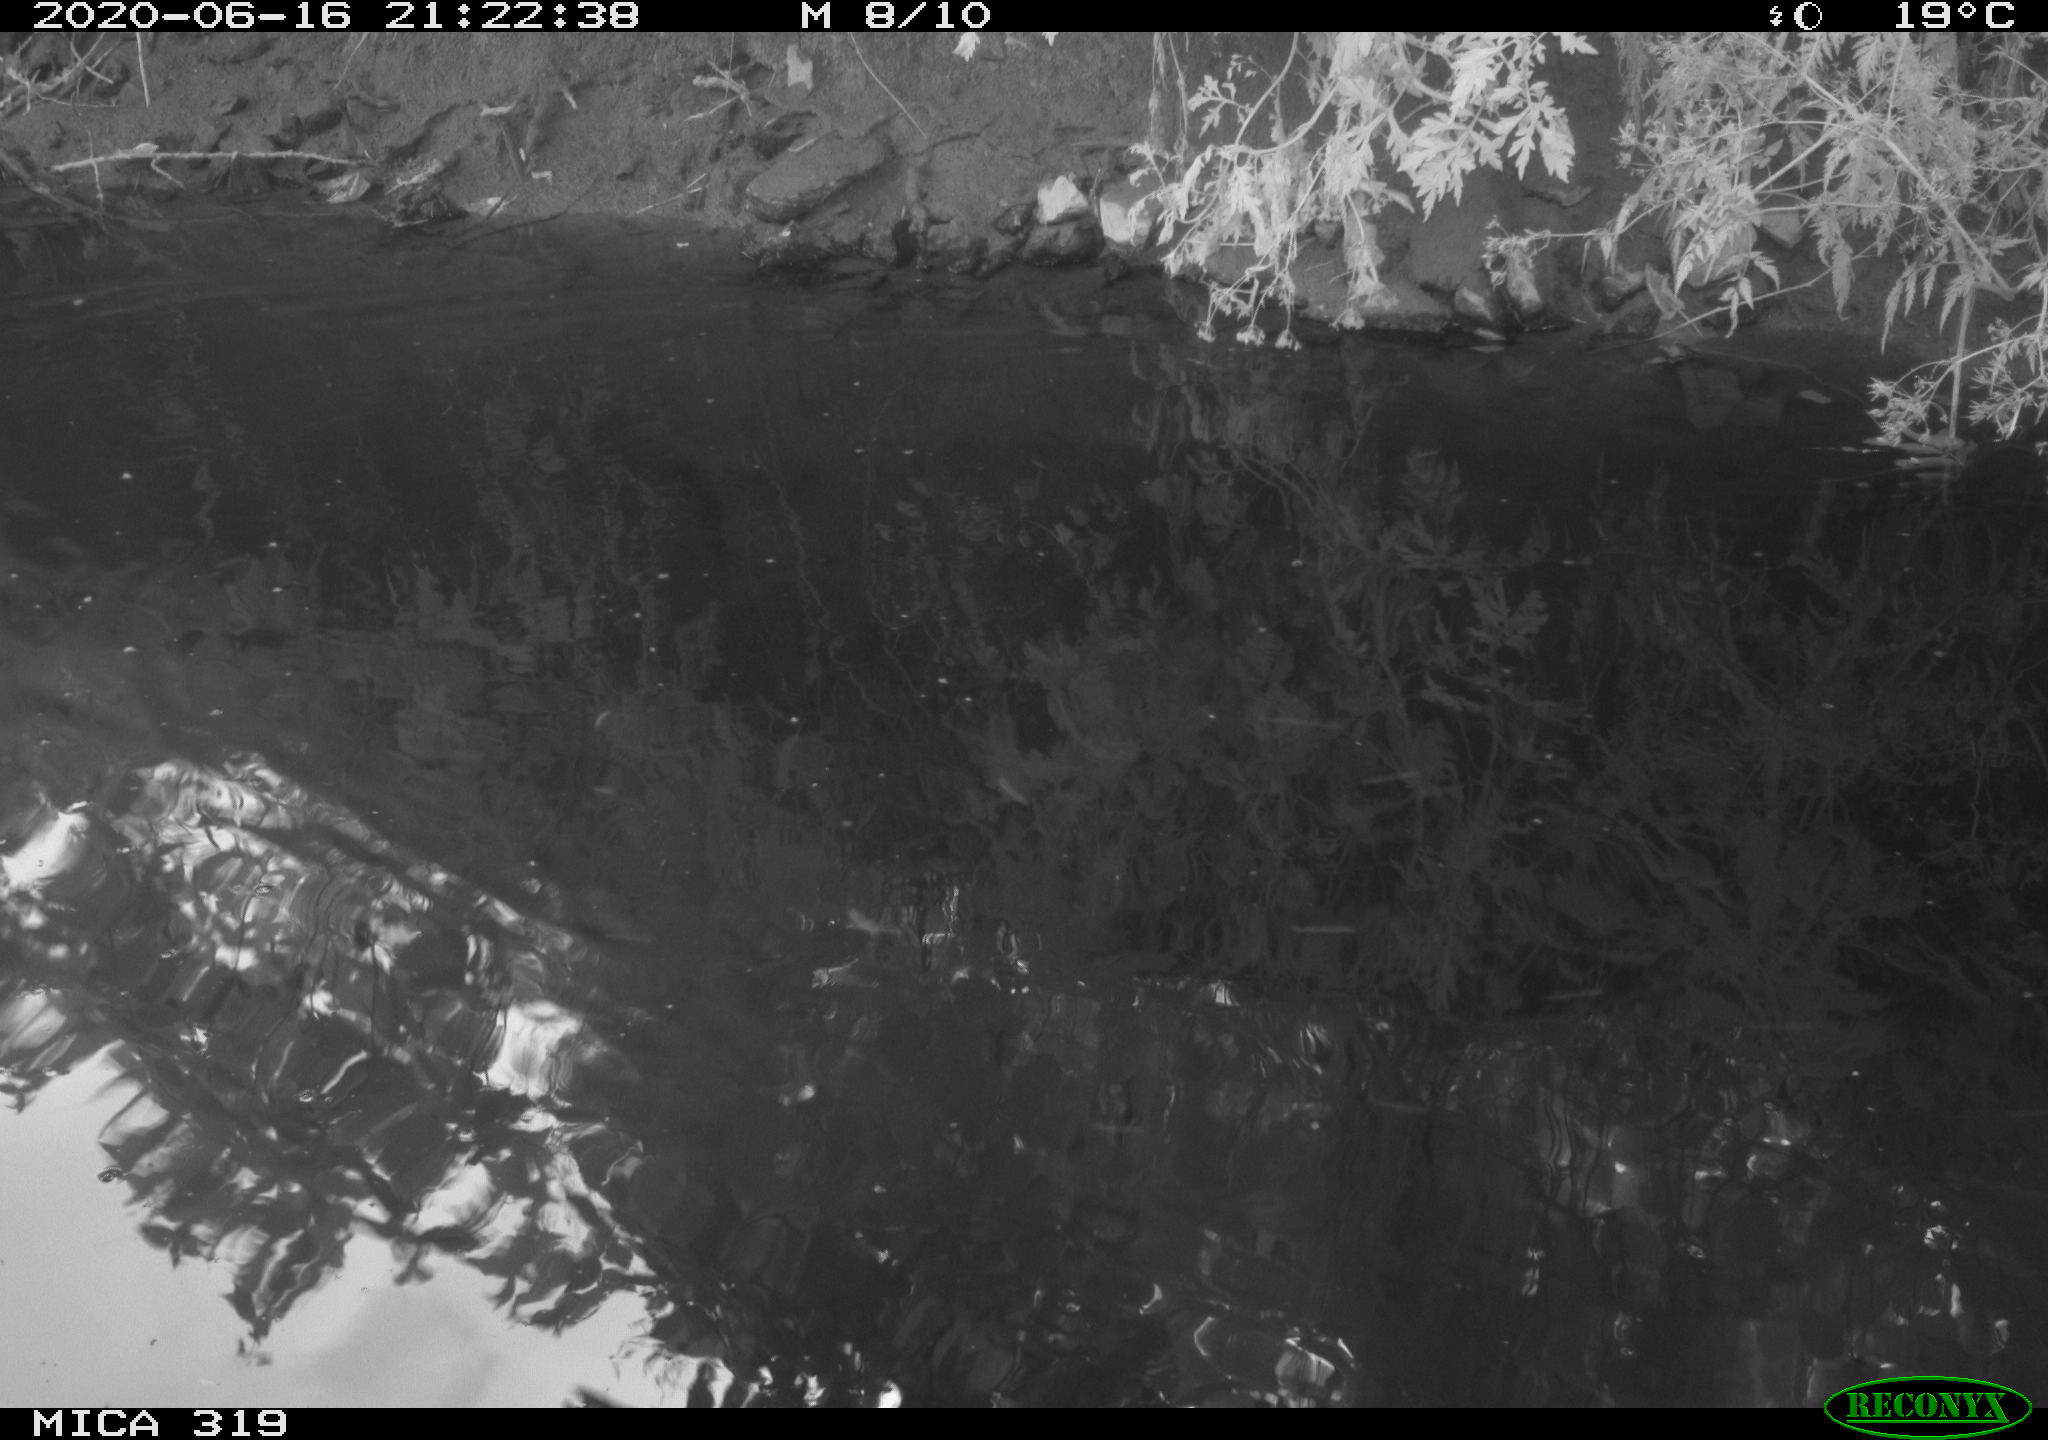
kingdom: Animalia
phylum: Chordata
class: Aves
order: Anseriformes
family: Anatidae
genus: Anas
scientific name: Anas platyrhynchos
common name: Mallard
